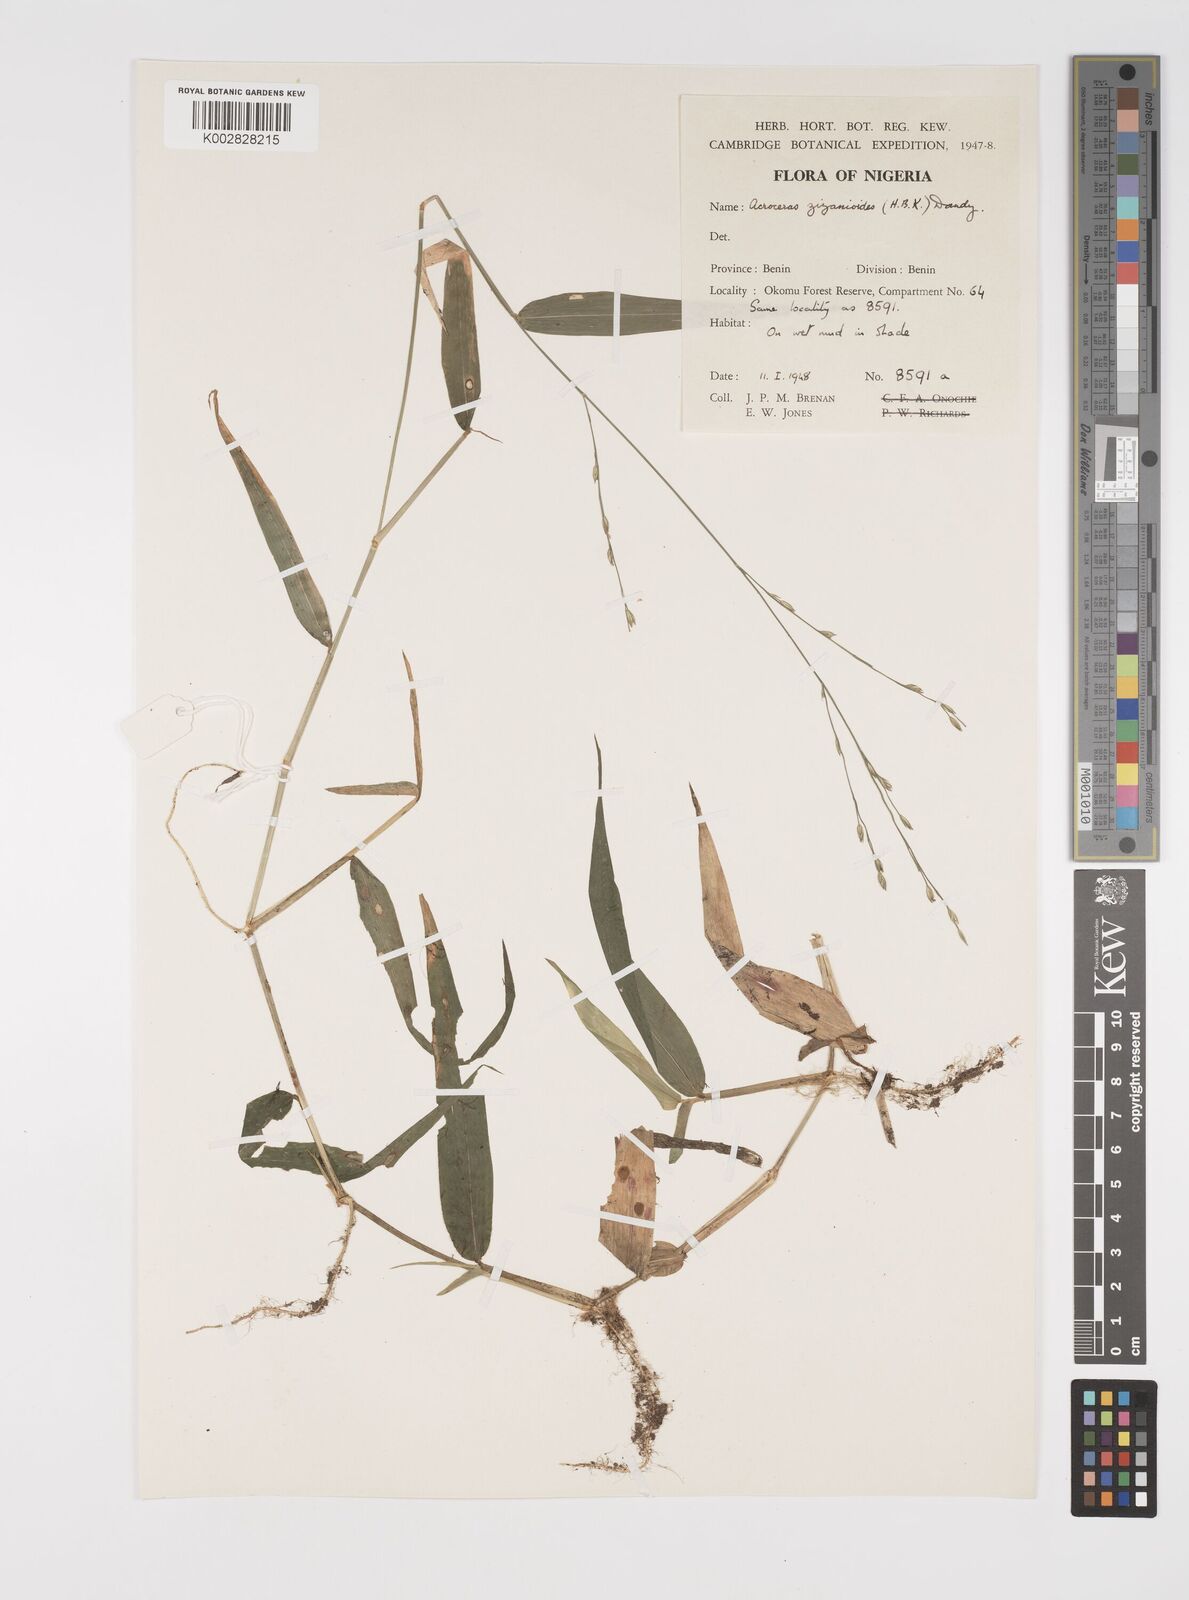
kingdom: Plantae
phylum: Tracheophyta
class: Liliopsida
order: Poales
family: Poaceae
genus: Acroceras
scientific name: Acroceras zizanioides
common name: Oat grass
